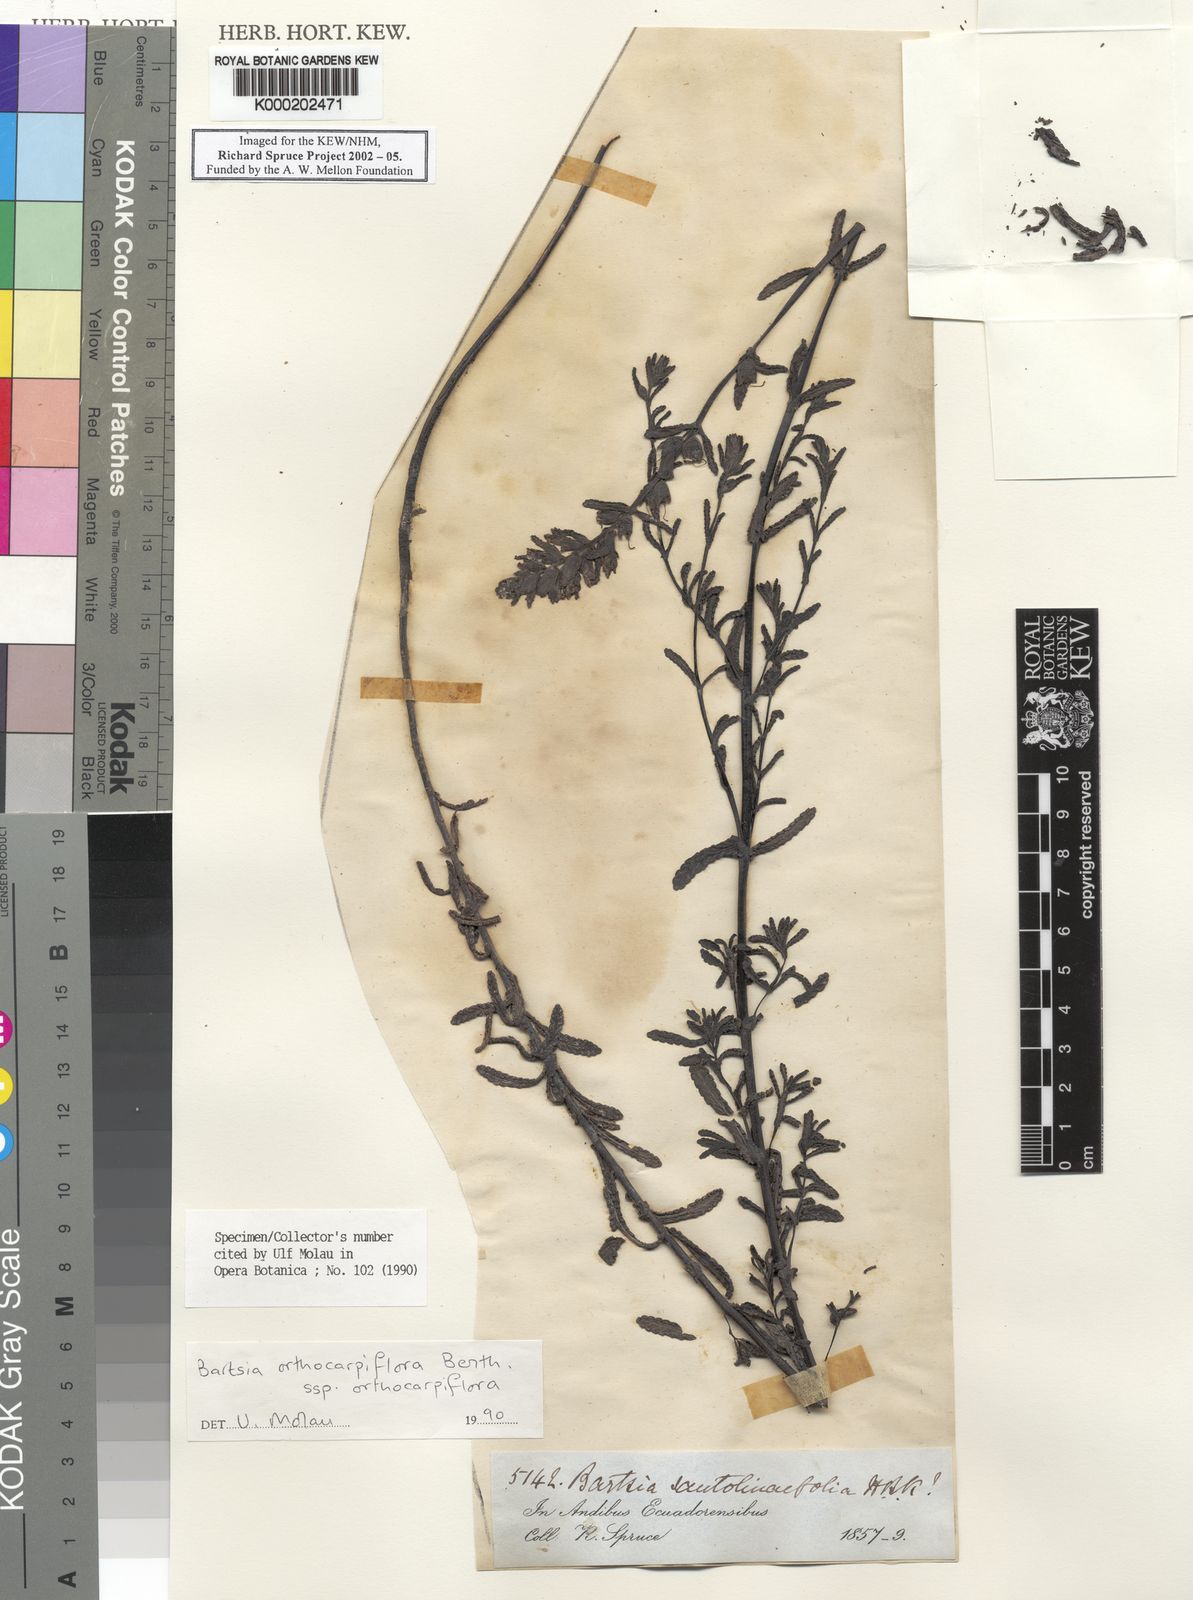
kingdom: Plantae
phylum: Tracheophyta
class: Magnoliopsida
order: Lamiales
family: Orobanchaceae
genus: Neobartsia
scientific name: Neobartsia orthocarpiflora
